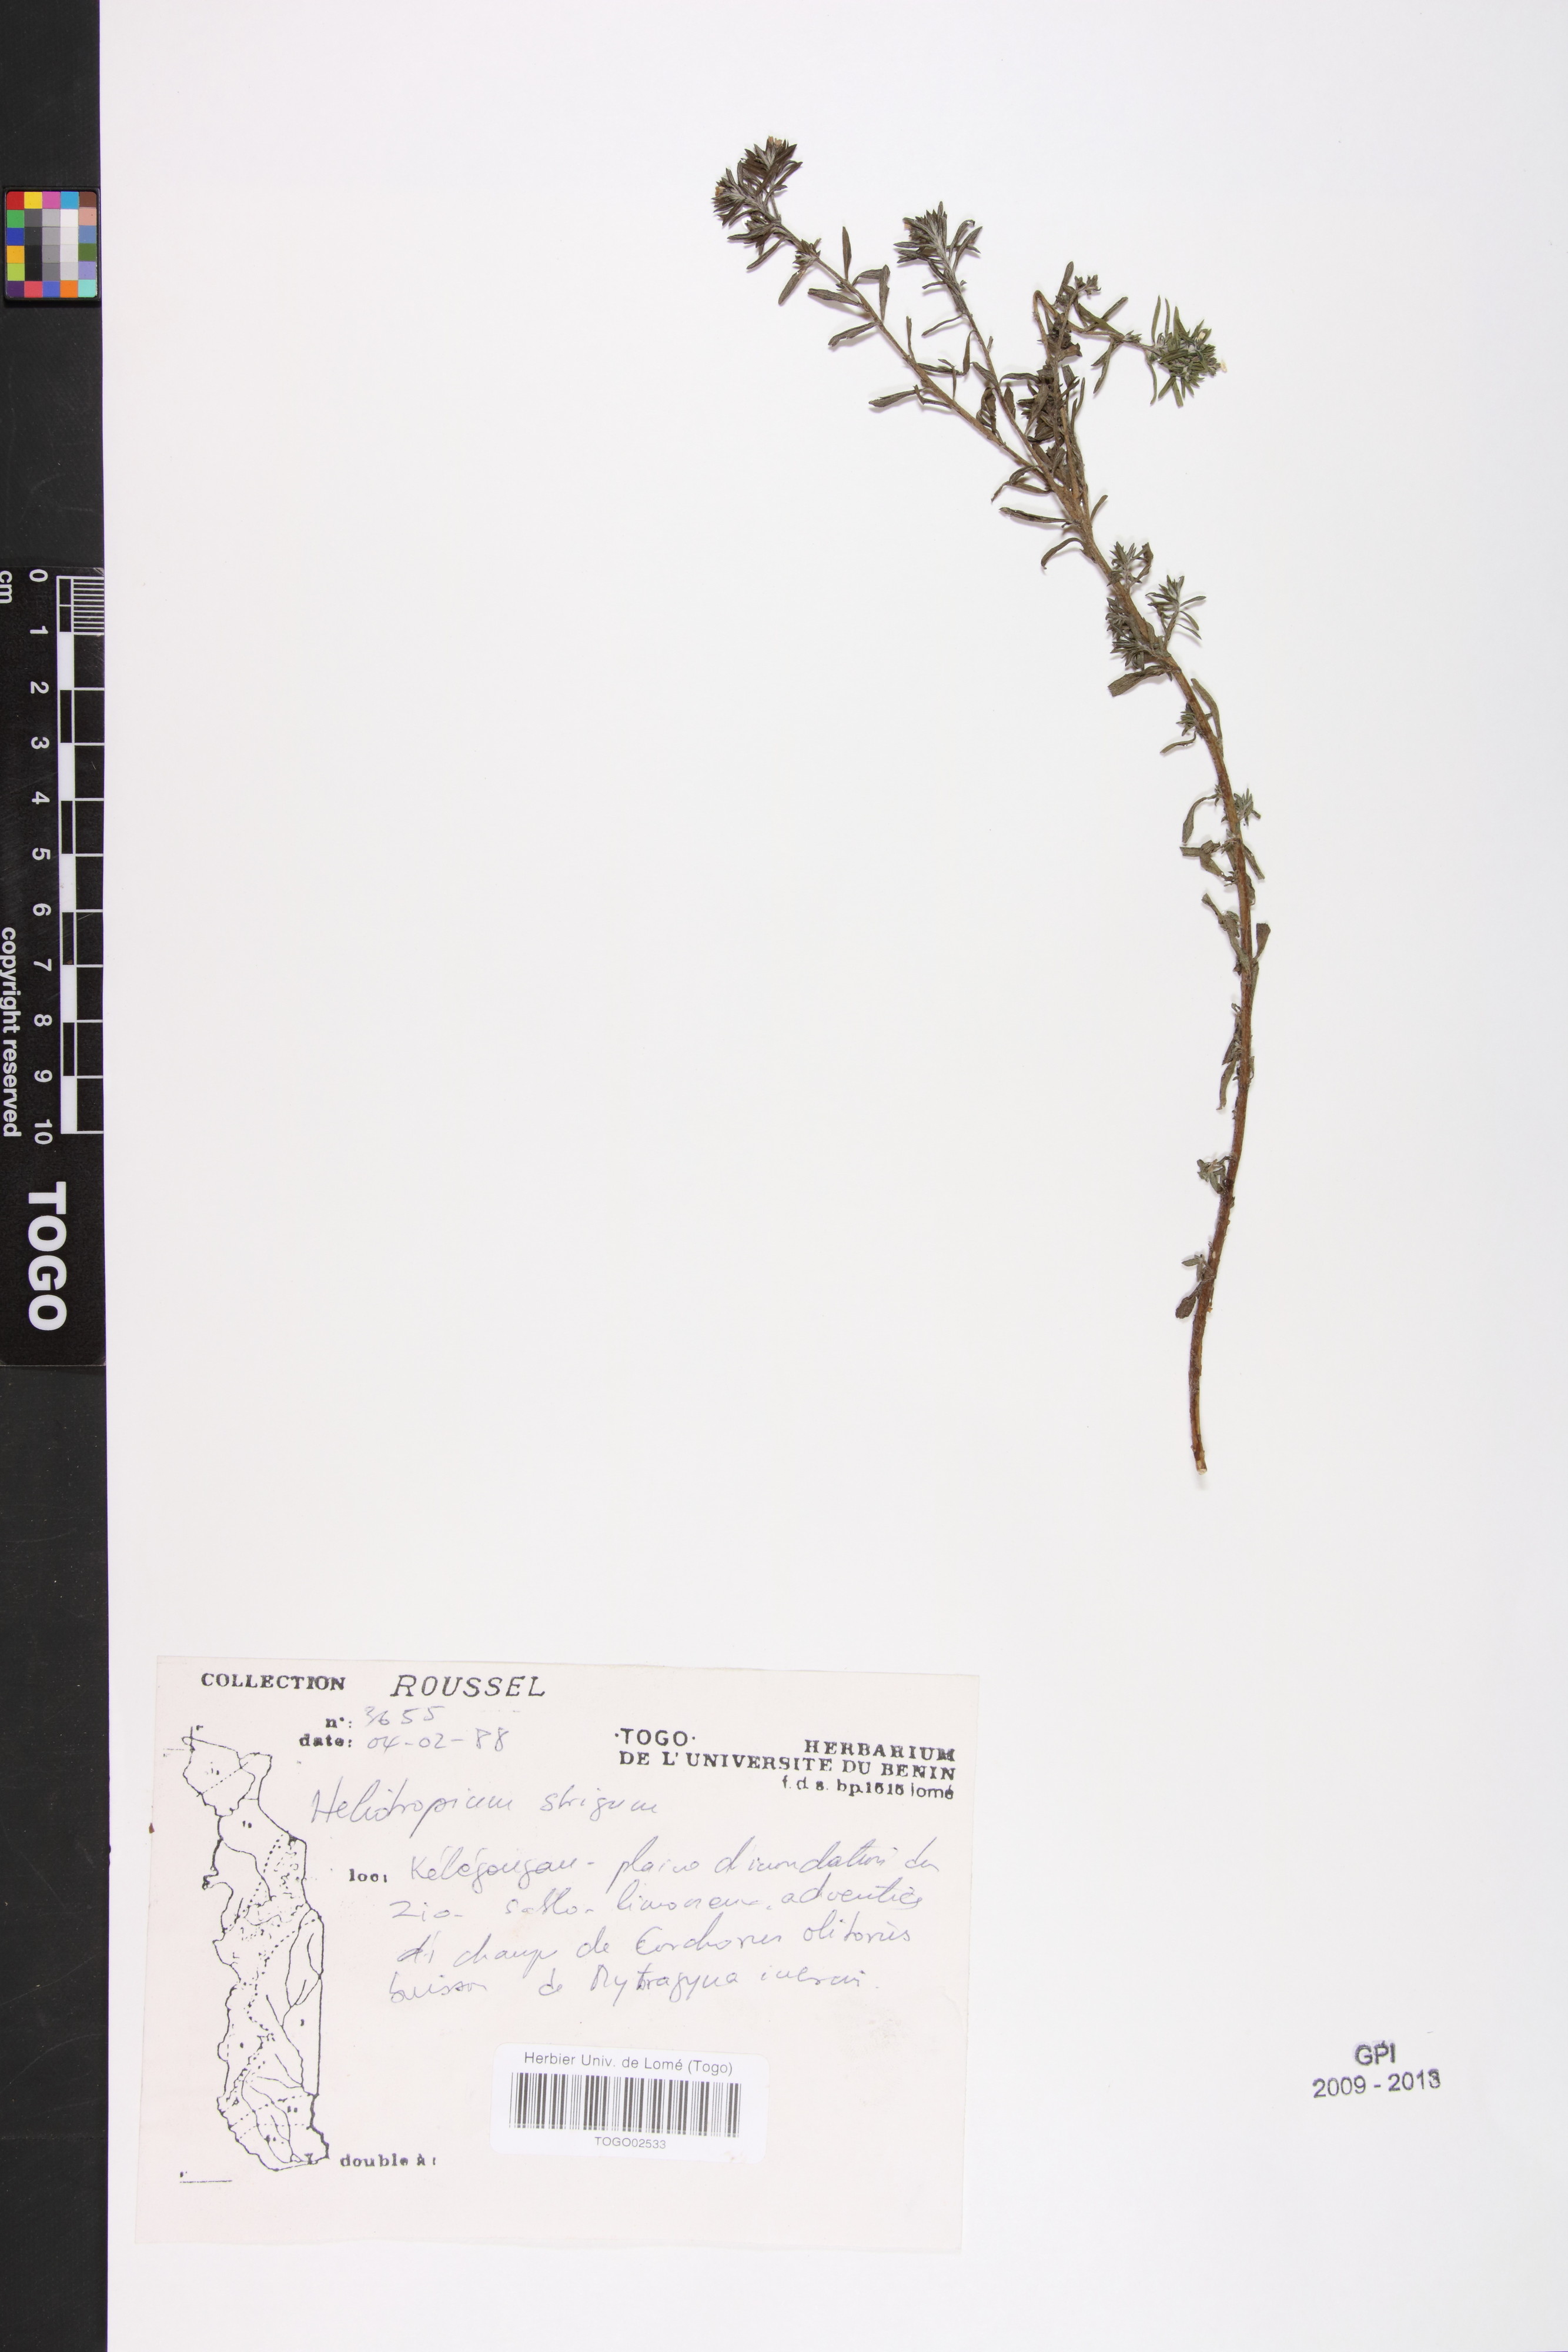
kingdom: Plantae
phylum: Tracheophyta
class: Magnoliopsida
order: Boraginales
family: Heliotropiaceae
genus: Euploca
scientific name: Euploca strigosa
